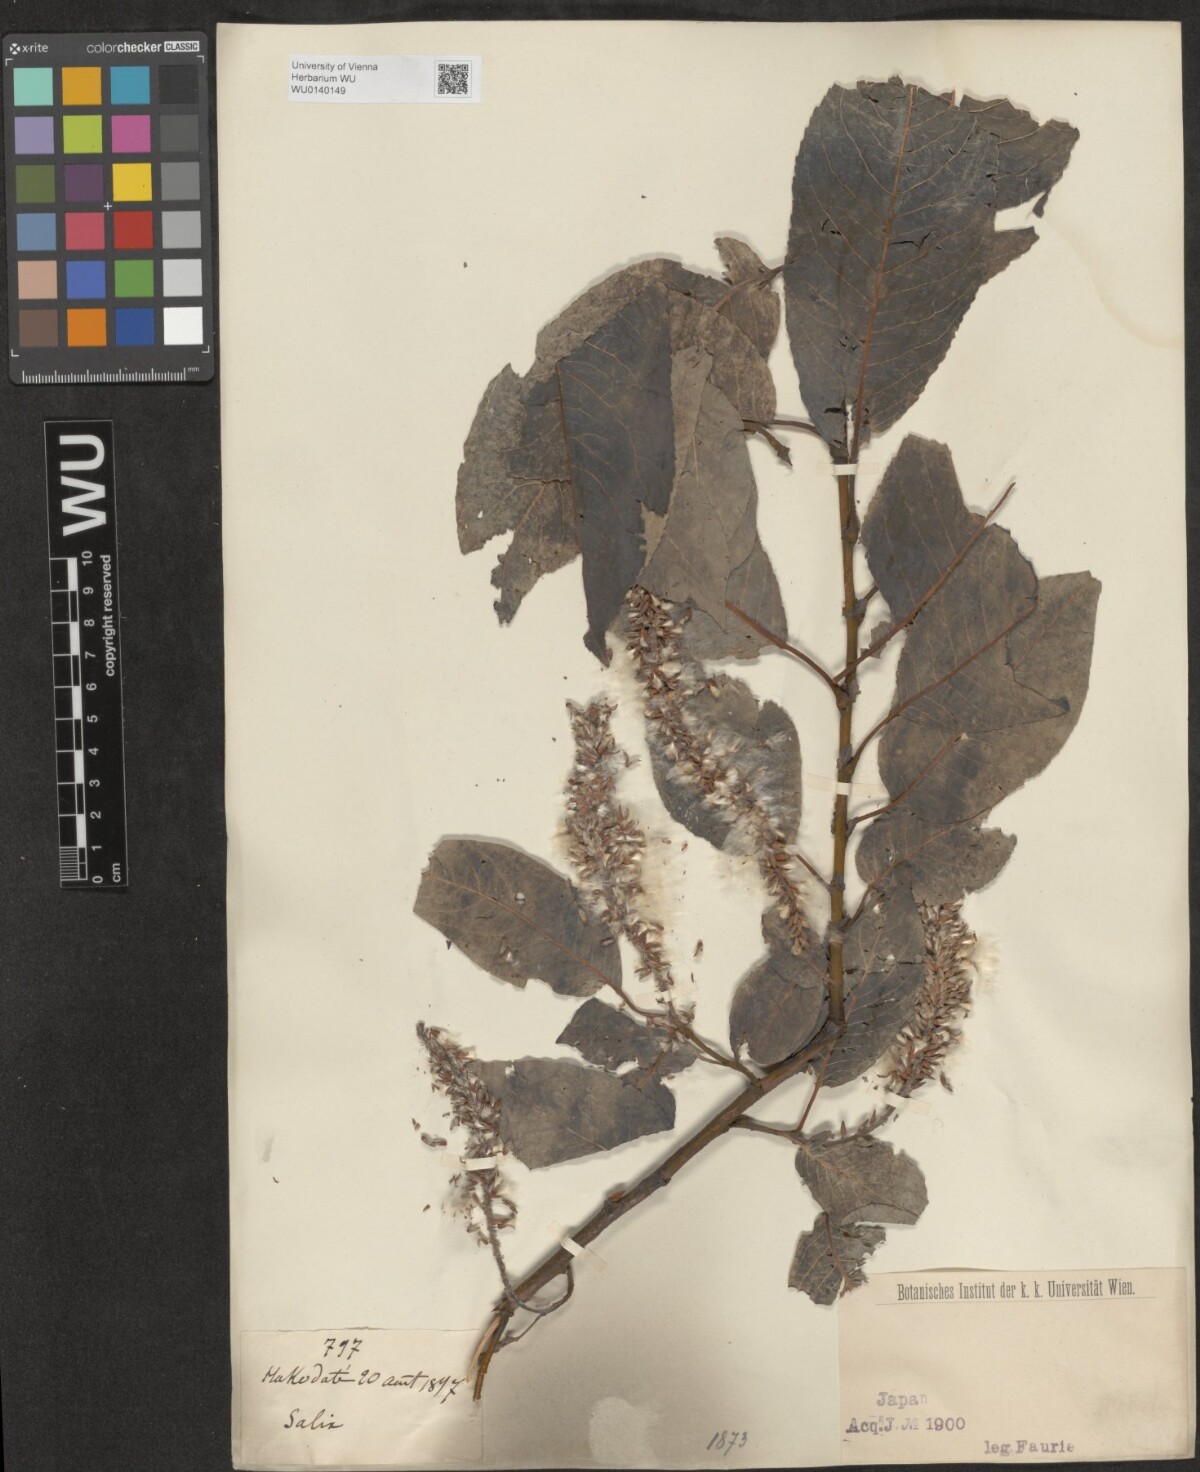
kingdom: Plantae
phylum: Tracheophyta
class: Magnoliopsida
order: Malpighiales
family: Salicaceae
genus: Salix
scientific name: Salix
